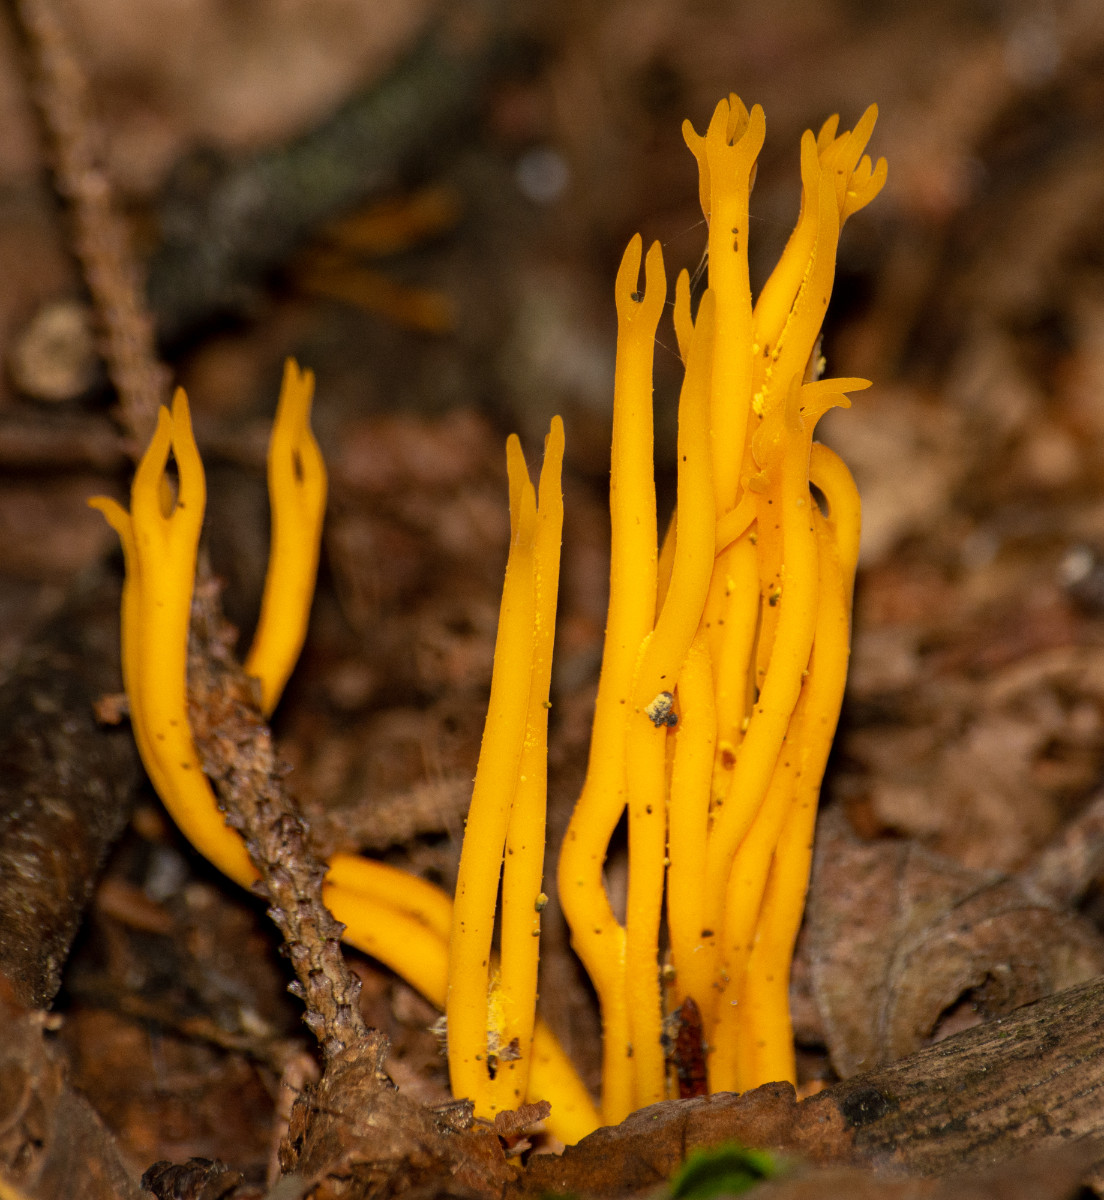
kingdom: Fungi
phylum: Basidiomycota
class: Dacrymycetes
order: Dacrymycetales
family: Dacrymycetaceae
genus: Calocera
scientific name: Calocera viscosa
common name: almindelig guldgaffel
